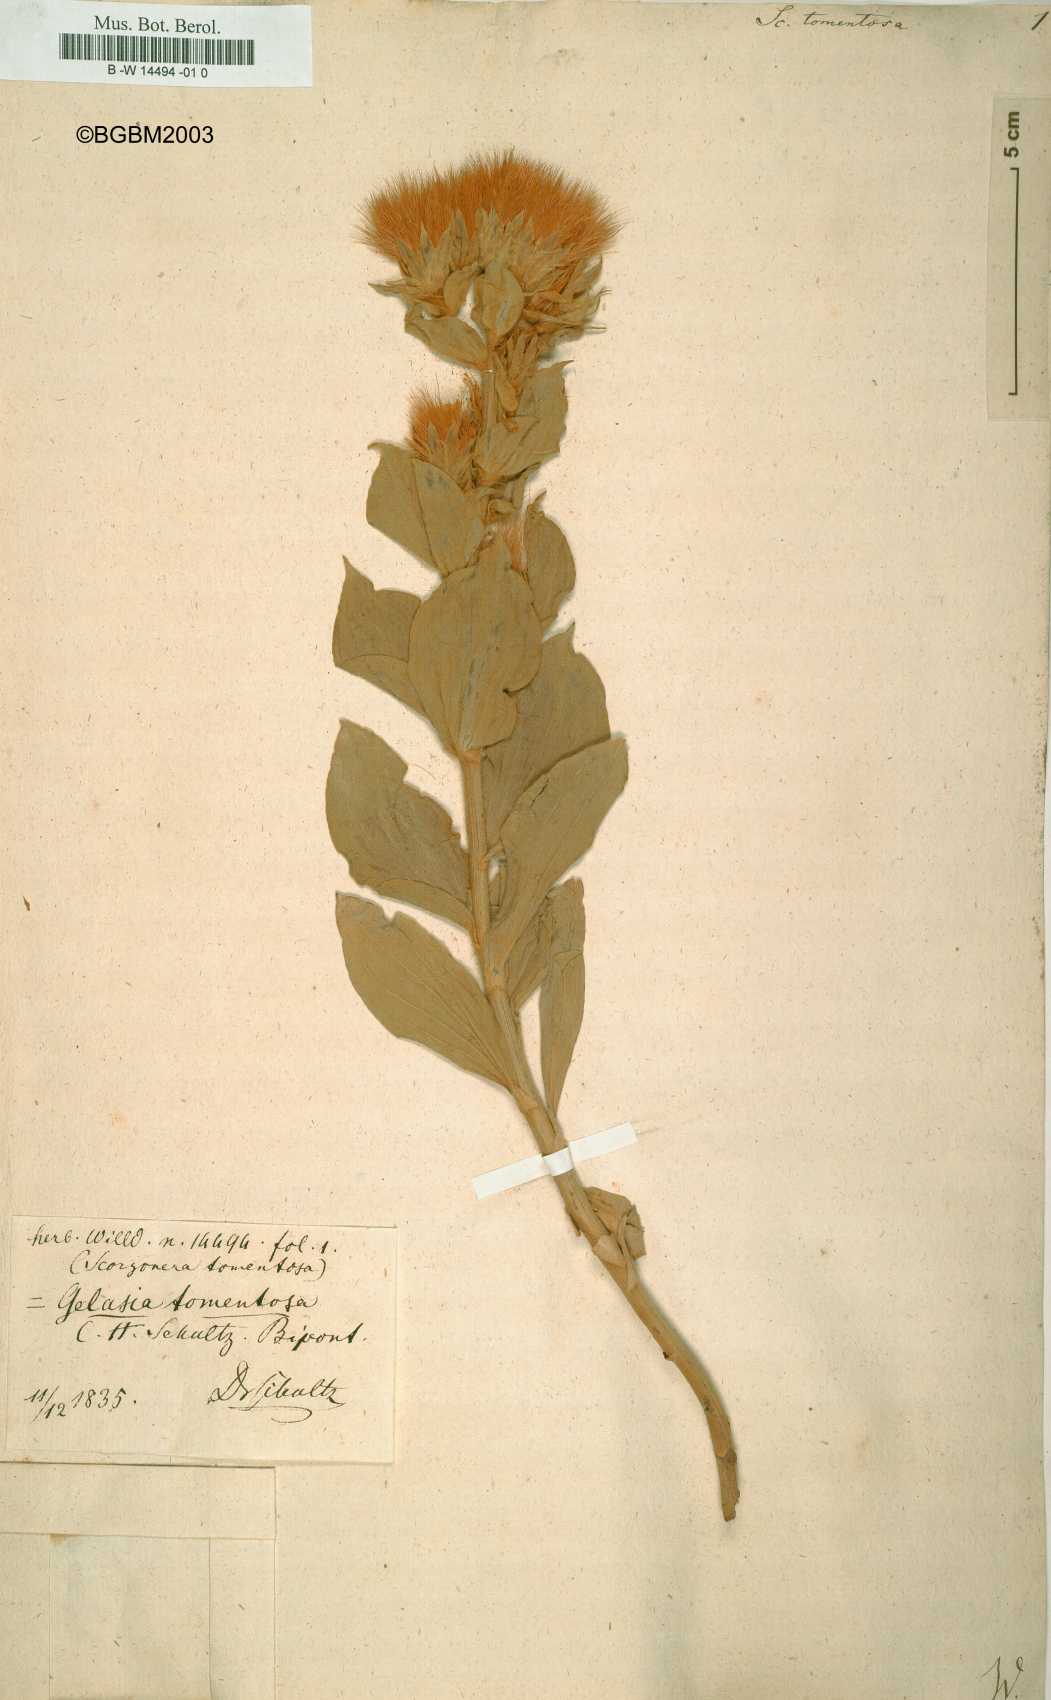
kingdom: Plantae
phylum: Tracheophyta
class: Magnoliopsida
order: Asterales
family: Asteraceae
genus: Guneria
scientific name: Guneria tomentosa
